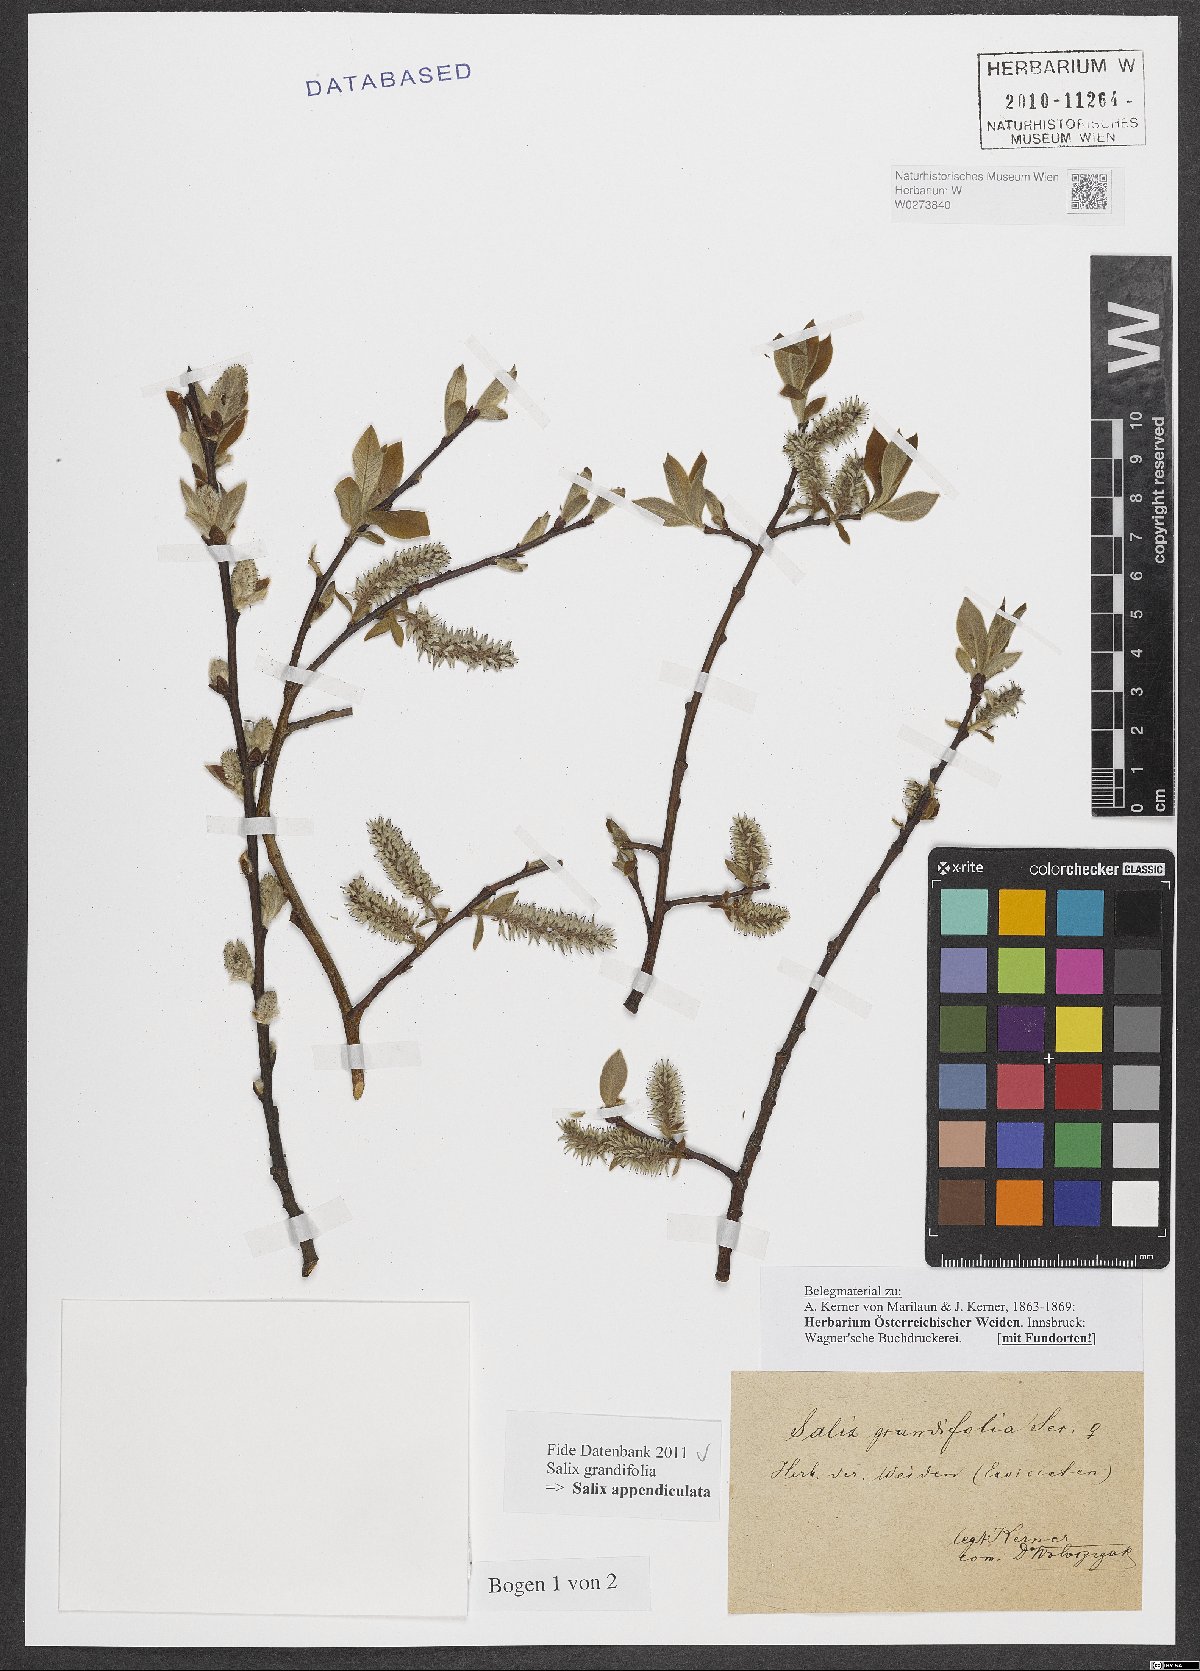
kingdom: Plantae
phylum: Tracheophyta
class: Magnoliopsida
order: Malpighiales
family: Salicaceae
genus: Salix
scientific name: Salix appendiculata
